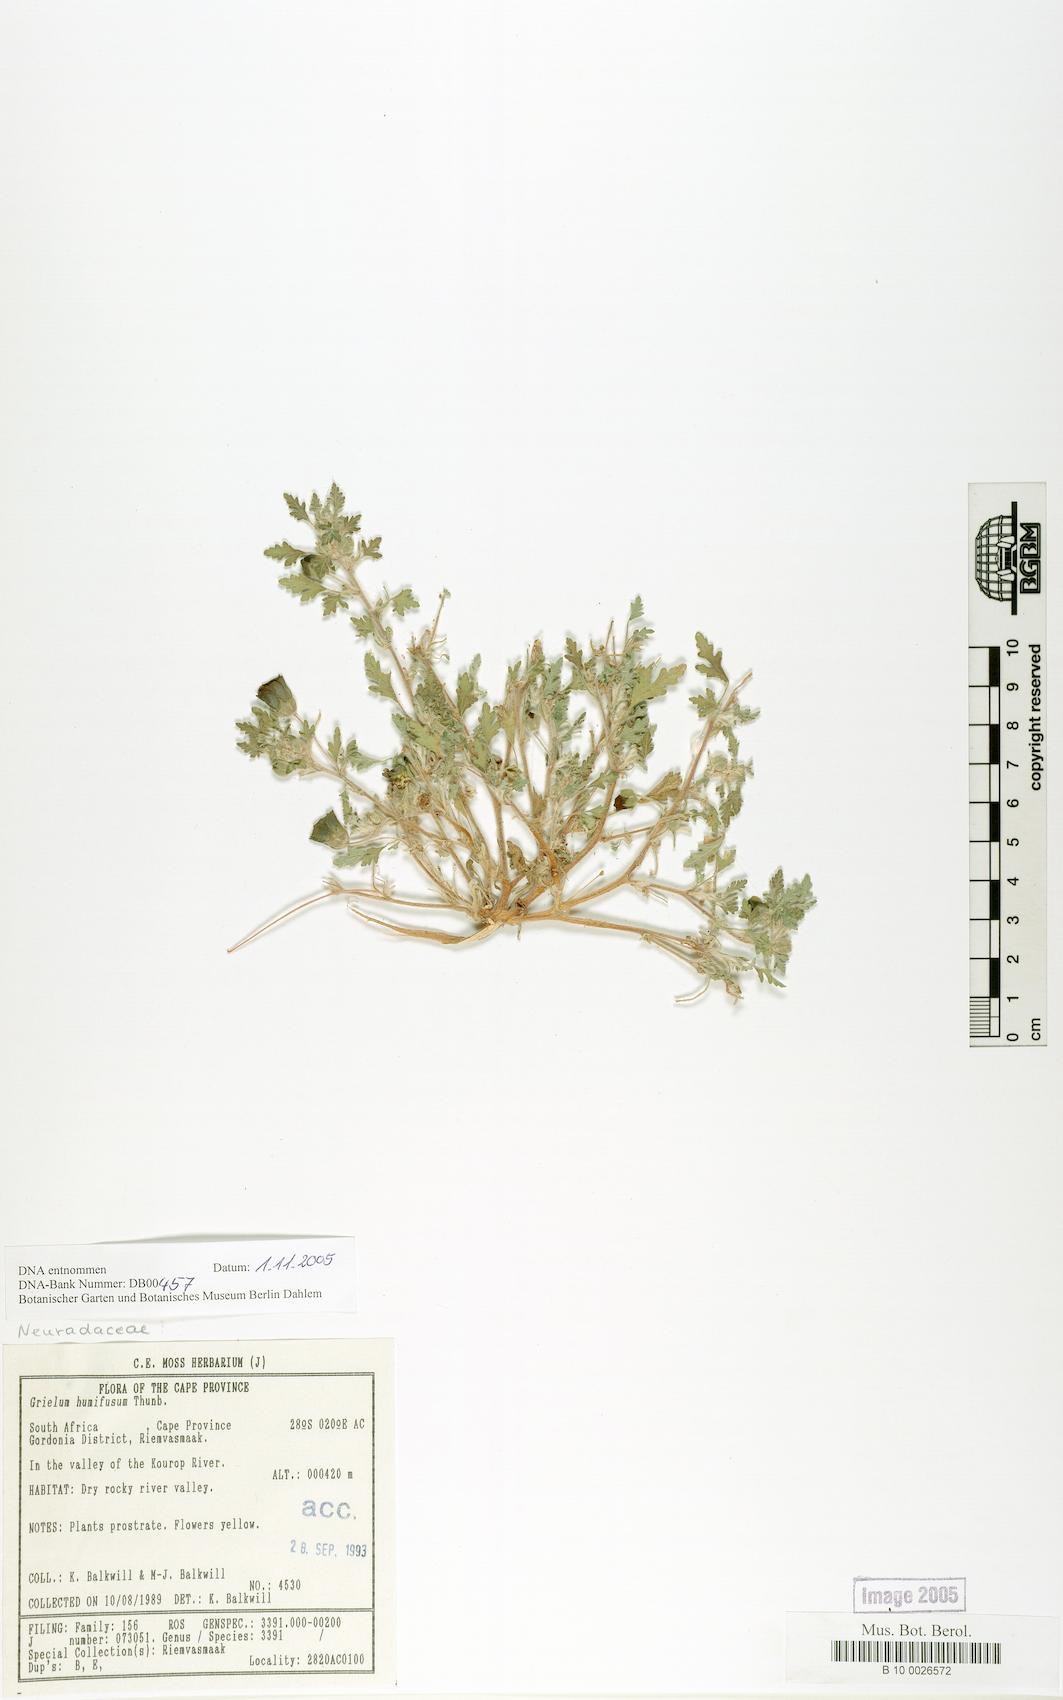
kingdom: Plantae
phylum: Tracheophyta
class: Magnoliopsida
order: Malvales
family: Neuradaceae
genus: Grielum
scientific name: Grielum humifusum
